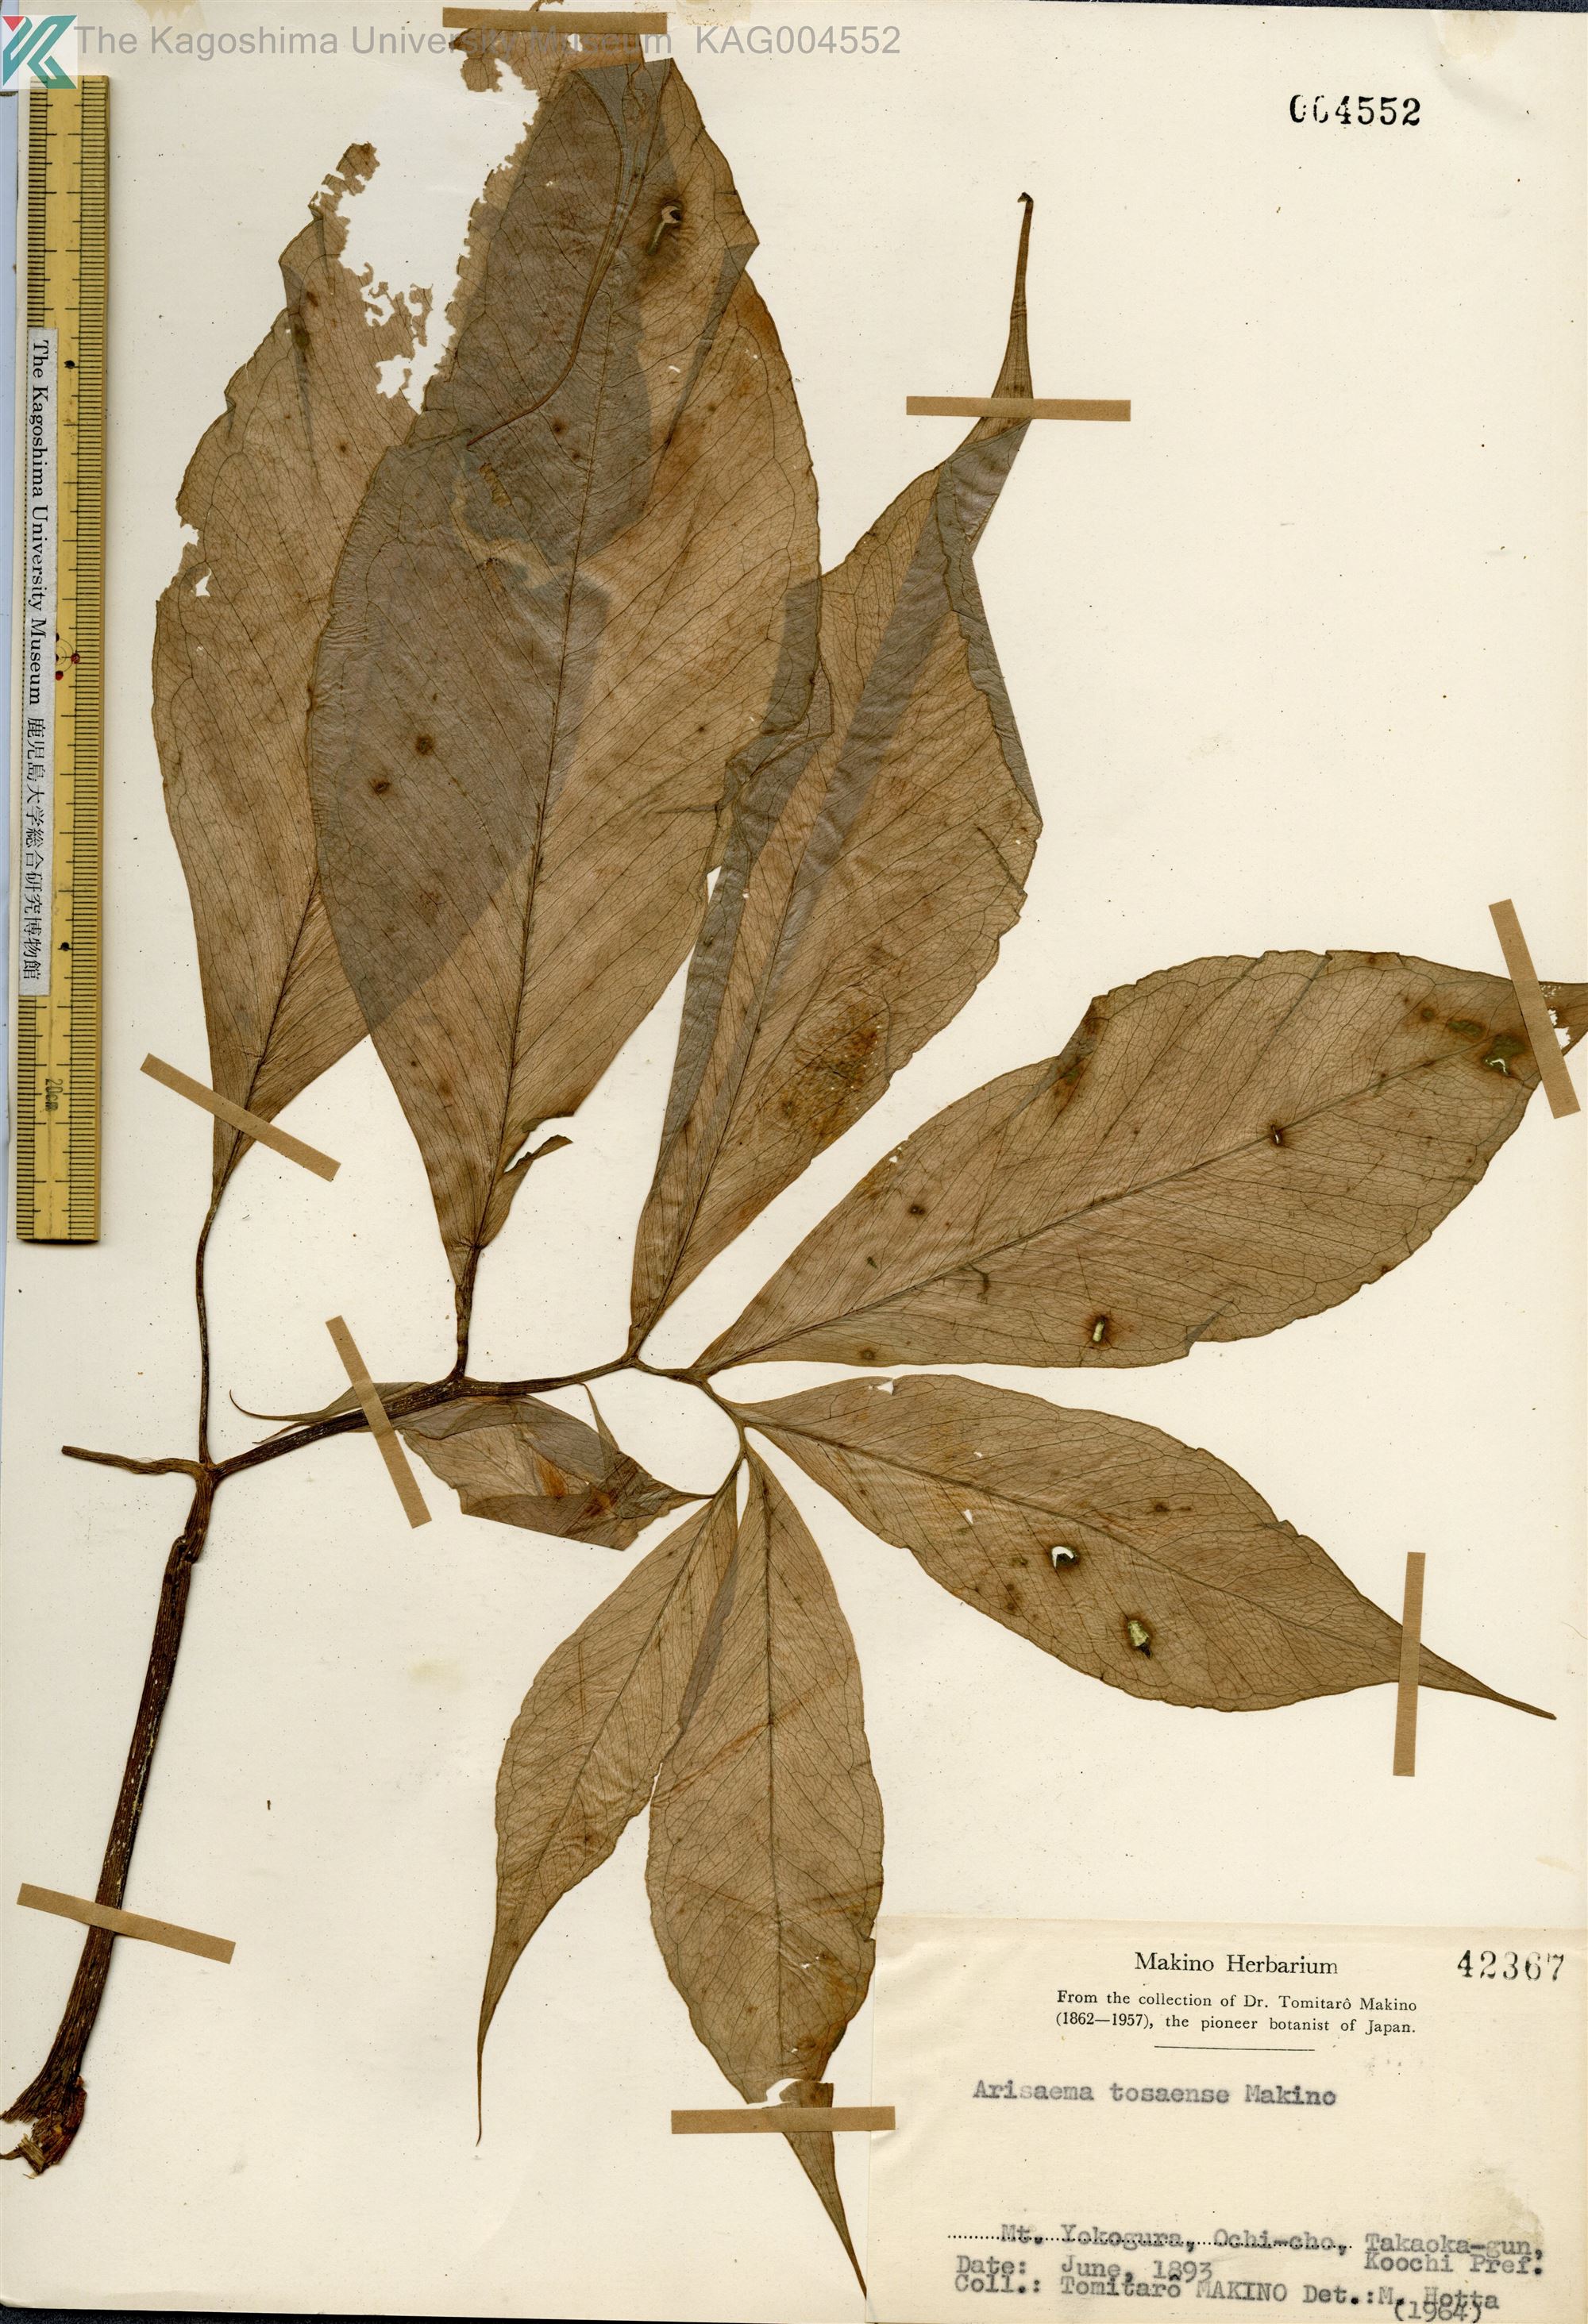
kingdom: Plantae
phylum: Tracheophyta
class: Liliopsida
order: Alismatales
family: Araceae
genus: Arisaema
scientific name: Arisaema tosaense
